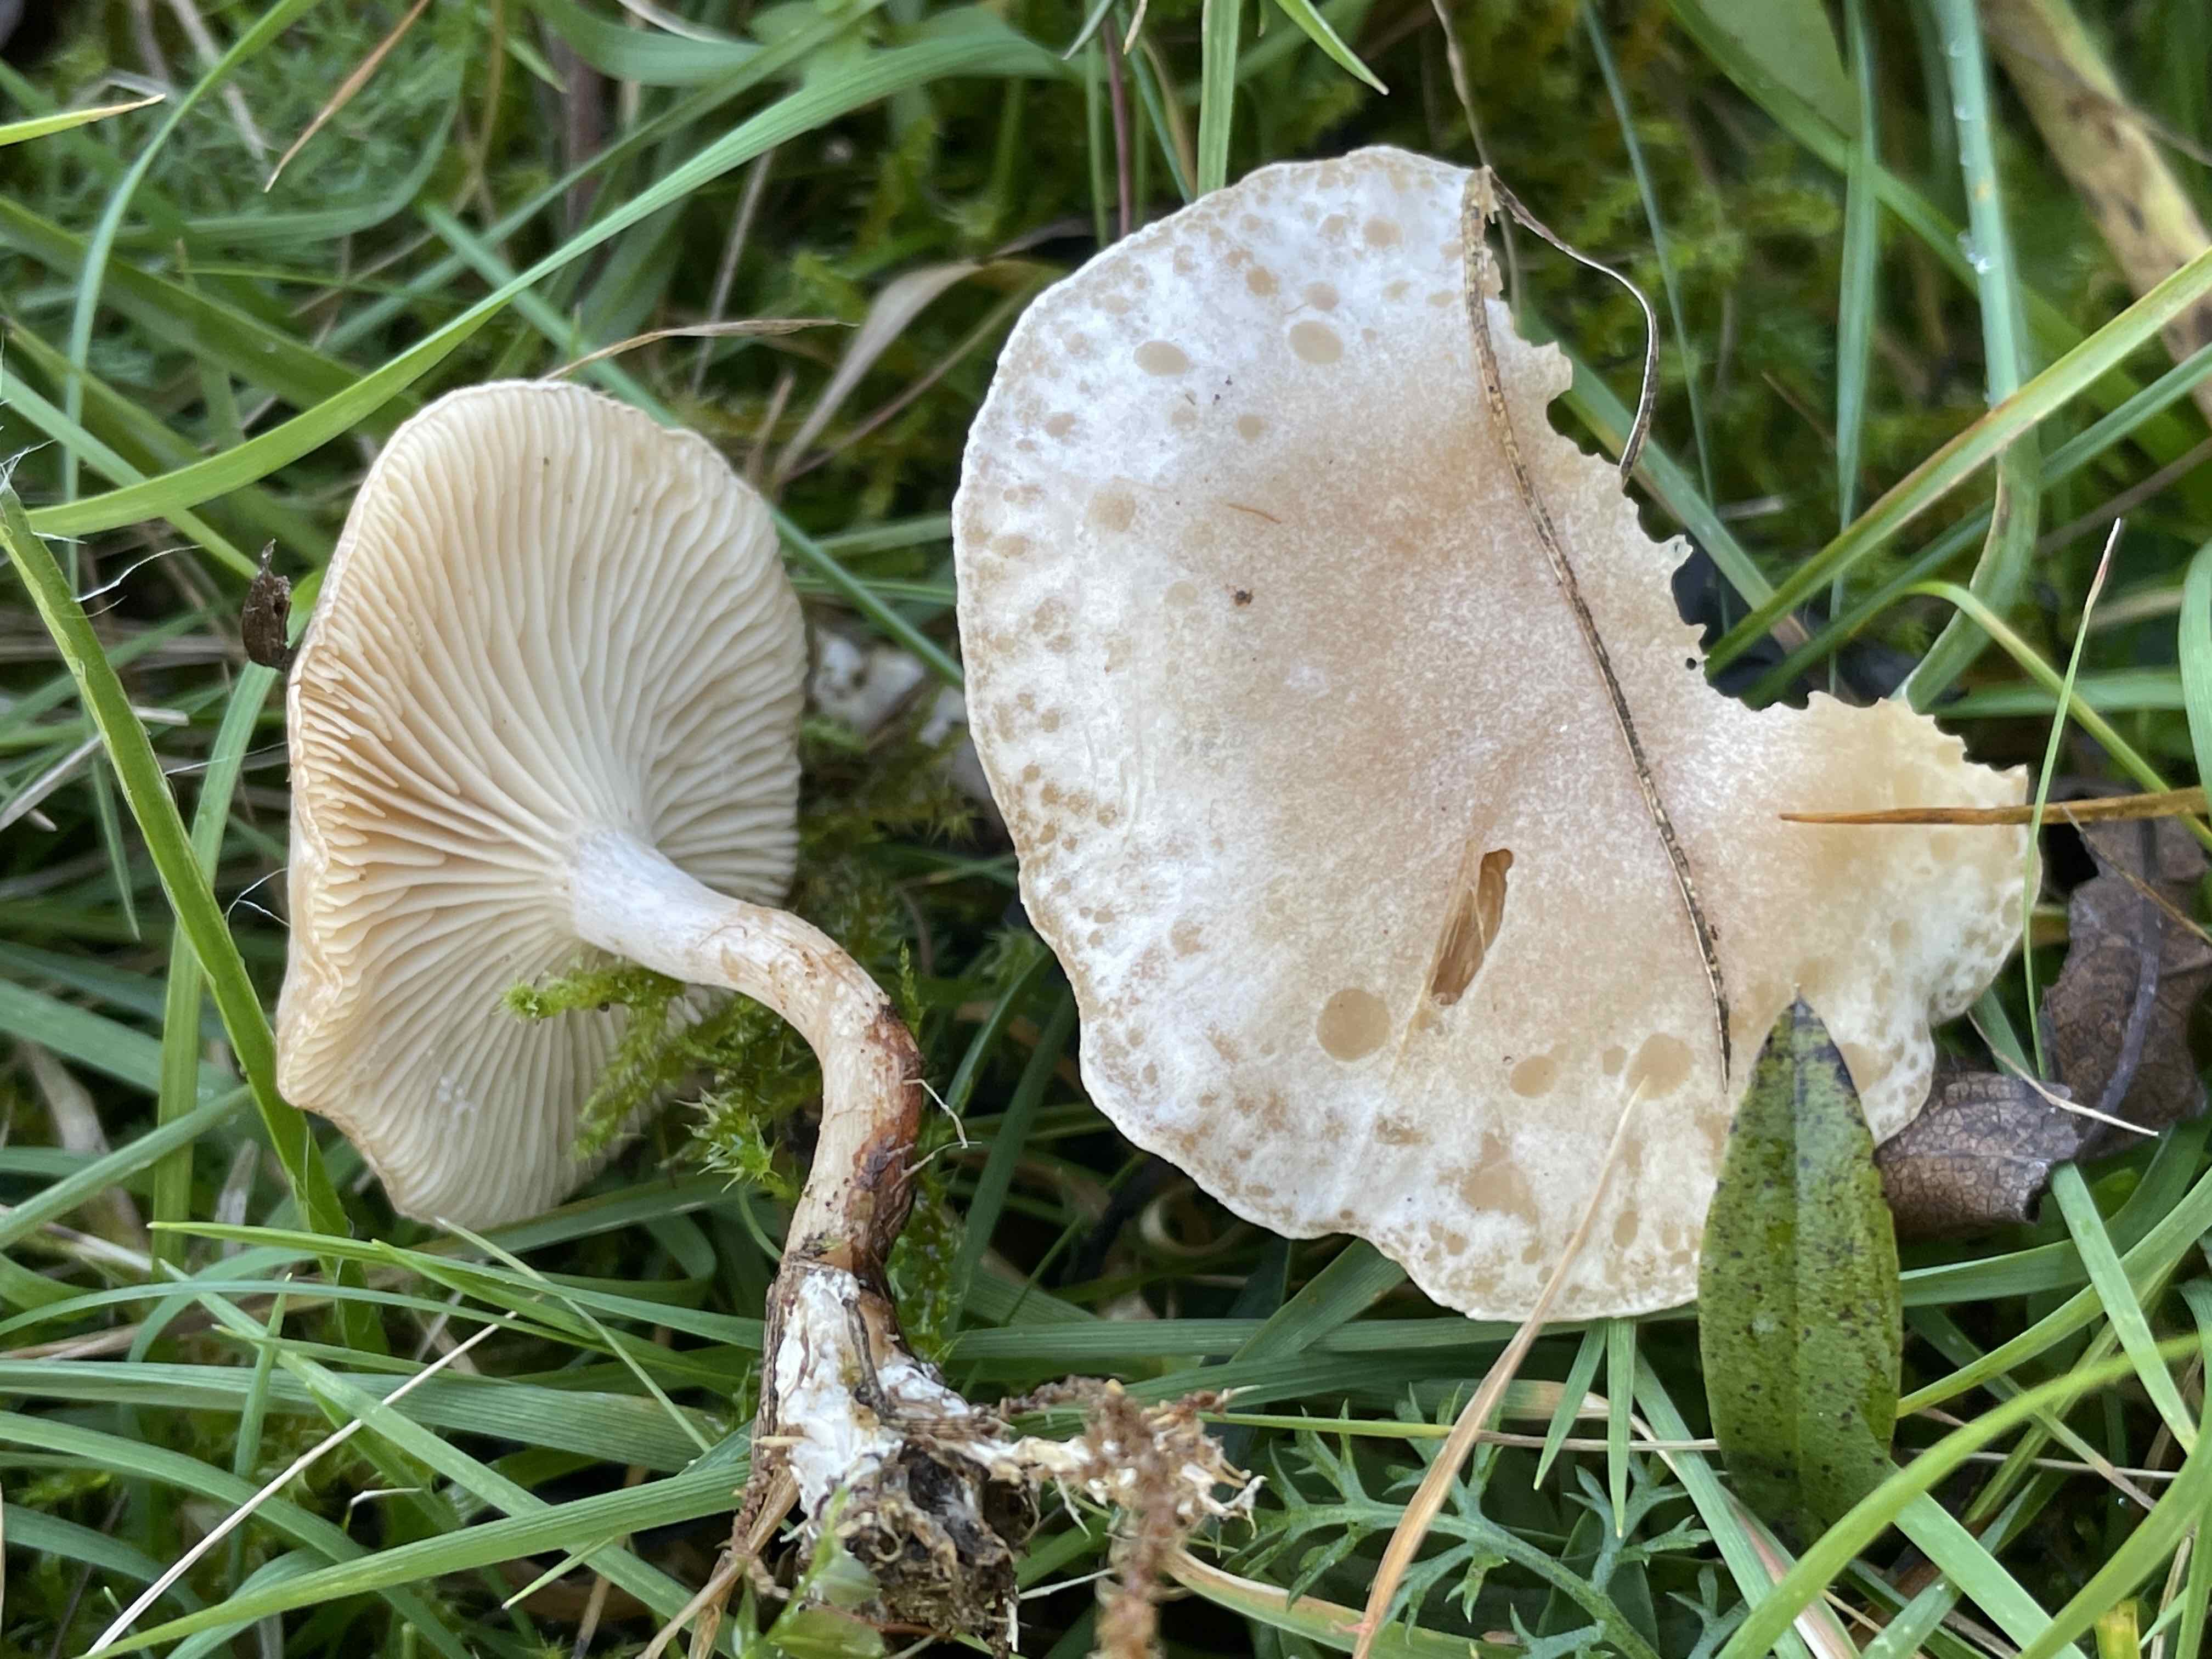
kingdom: Fungi
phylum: Basidiomycota
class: Agaricomycetes
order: Agaricales
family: Tricholomataceae
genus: Clitocybe
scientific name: Clitocybe rivulosa
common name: eng-tragthat
